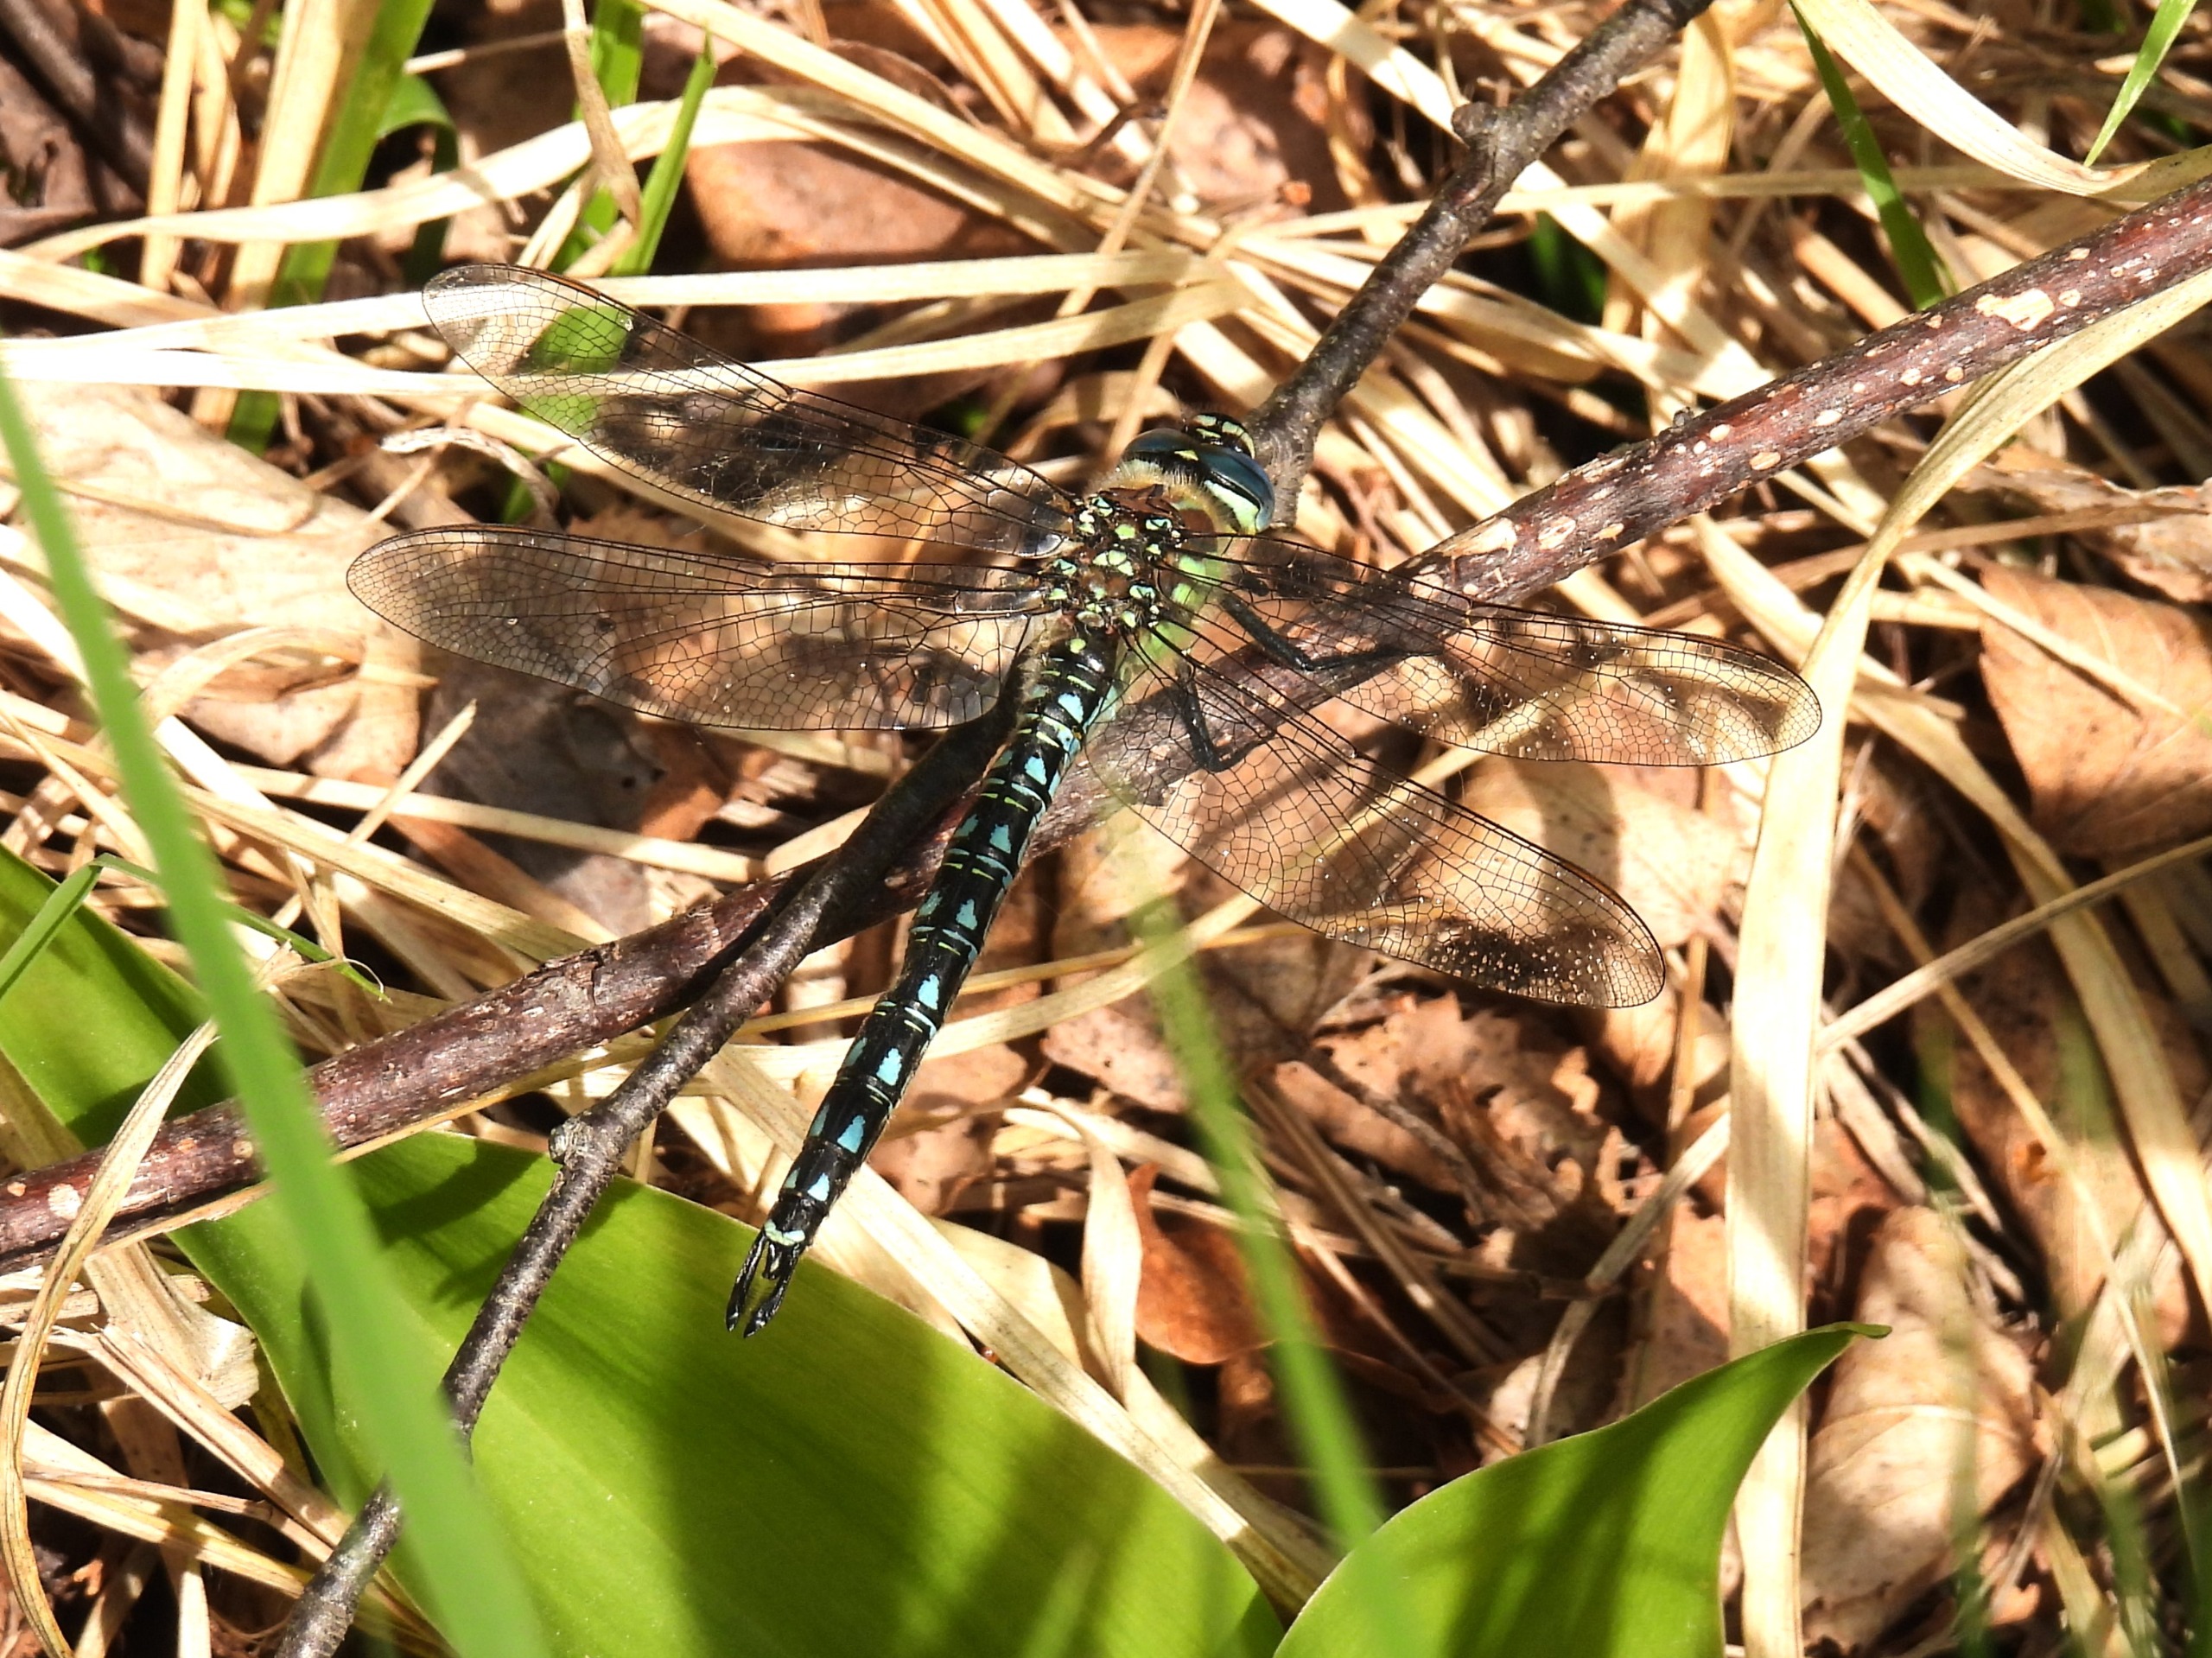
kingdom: Animalia
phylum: Arthropoda
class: Insecta
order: Odonata
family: Aeshnidae
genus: Brachytron
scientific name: Brachytron pratense
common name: Håret mosaikguldsmed
